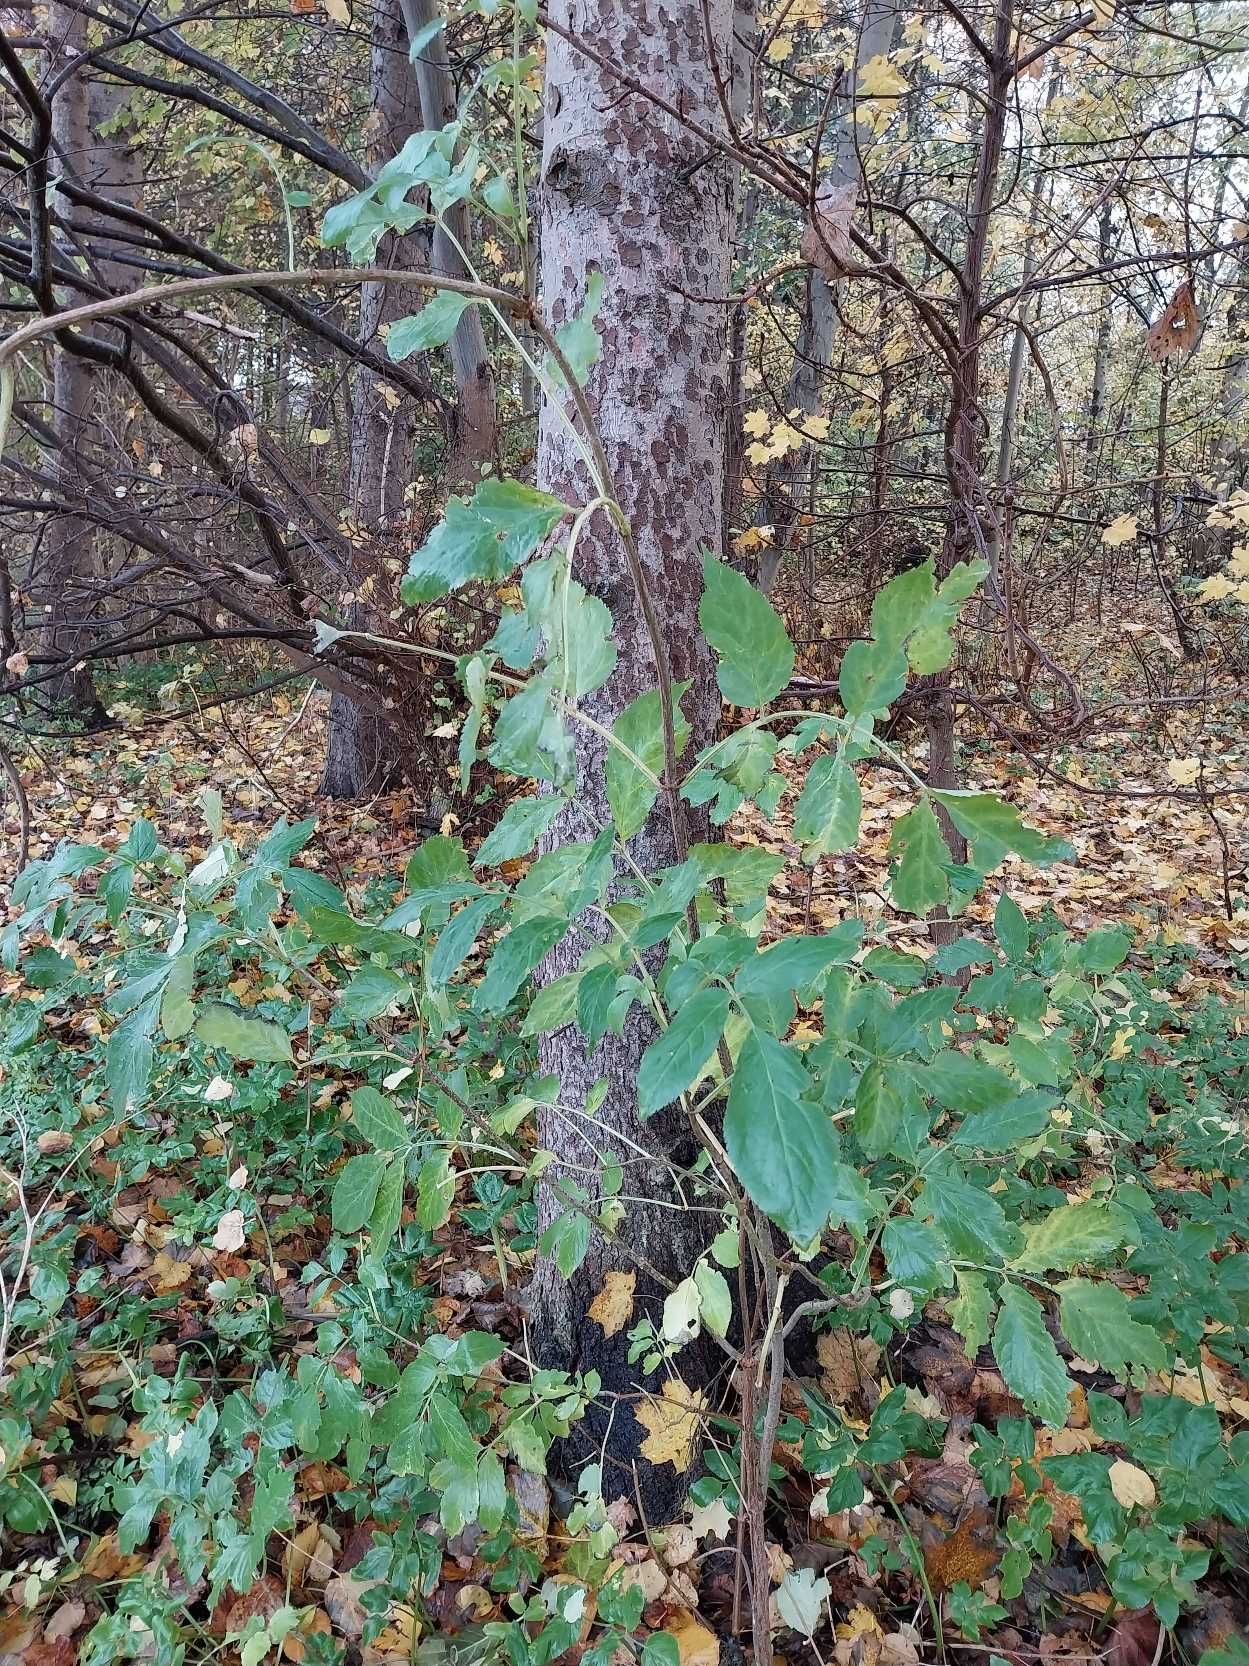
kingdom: Plantae
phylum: Tracheophyta
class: Magnoliopsida
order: Dipsacales
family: Viburnaceae
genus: Sambucus
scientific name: Sambucus nigra
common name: Almindelig hyld
